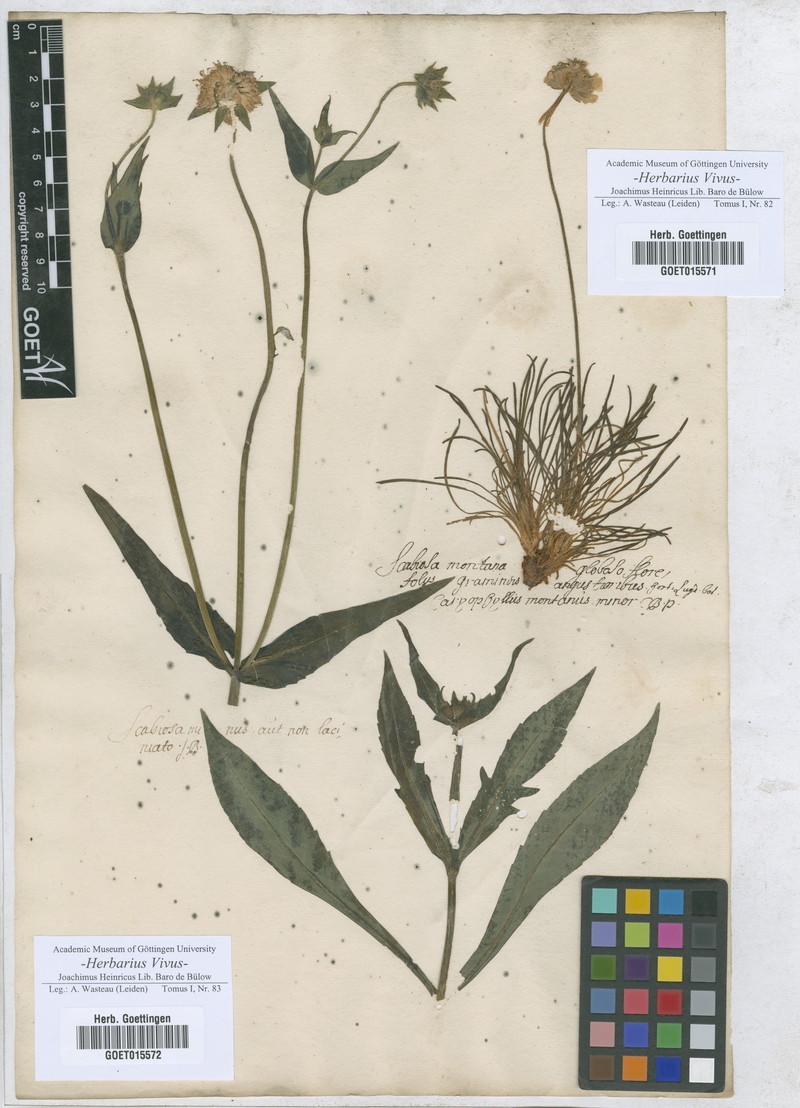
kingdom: Plantae
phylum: Tracheophyta
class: Magnoliopsida
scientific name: Magnoliopsida
